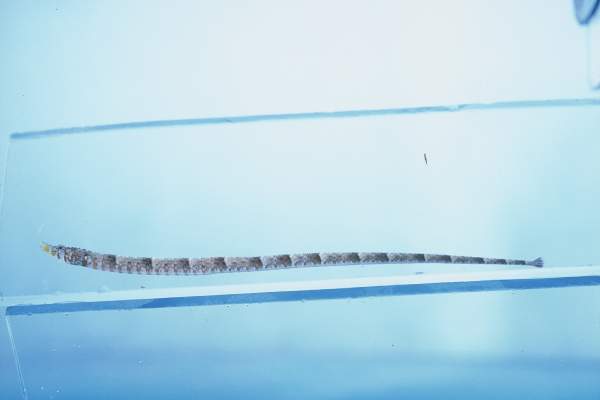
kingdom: Animalia
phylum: Chordata
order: Syngnathiformes
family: Syngnathidae
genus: Halicampus
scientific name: Halicampus zavorensis
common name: Zavora pipefish
